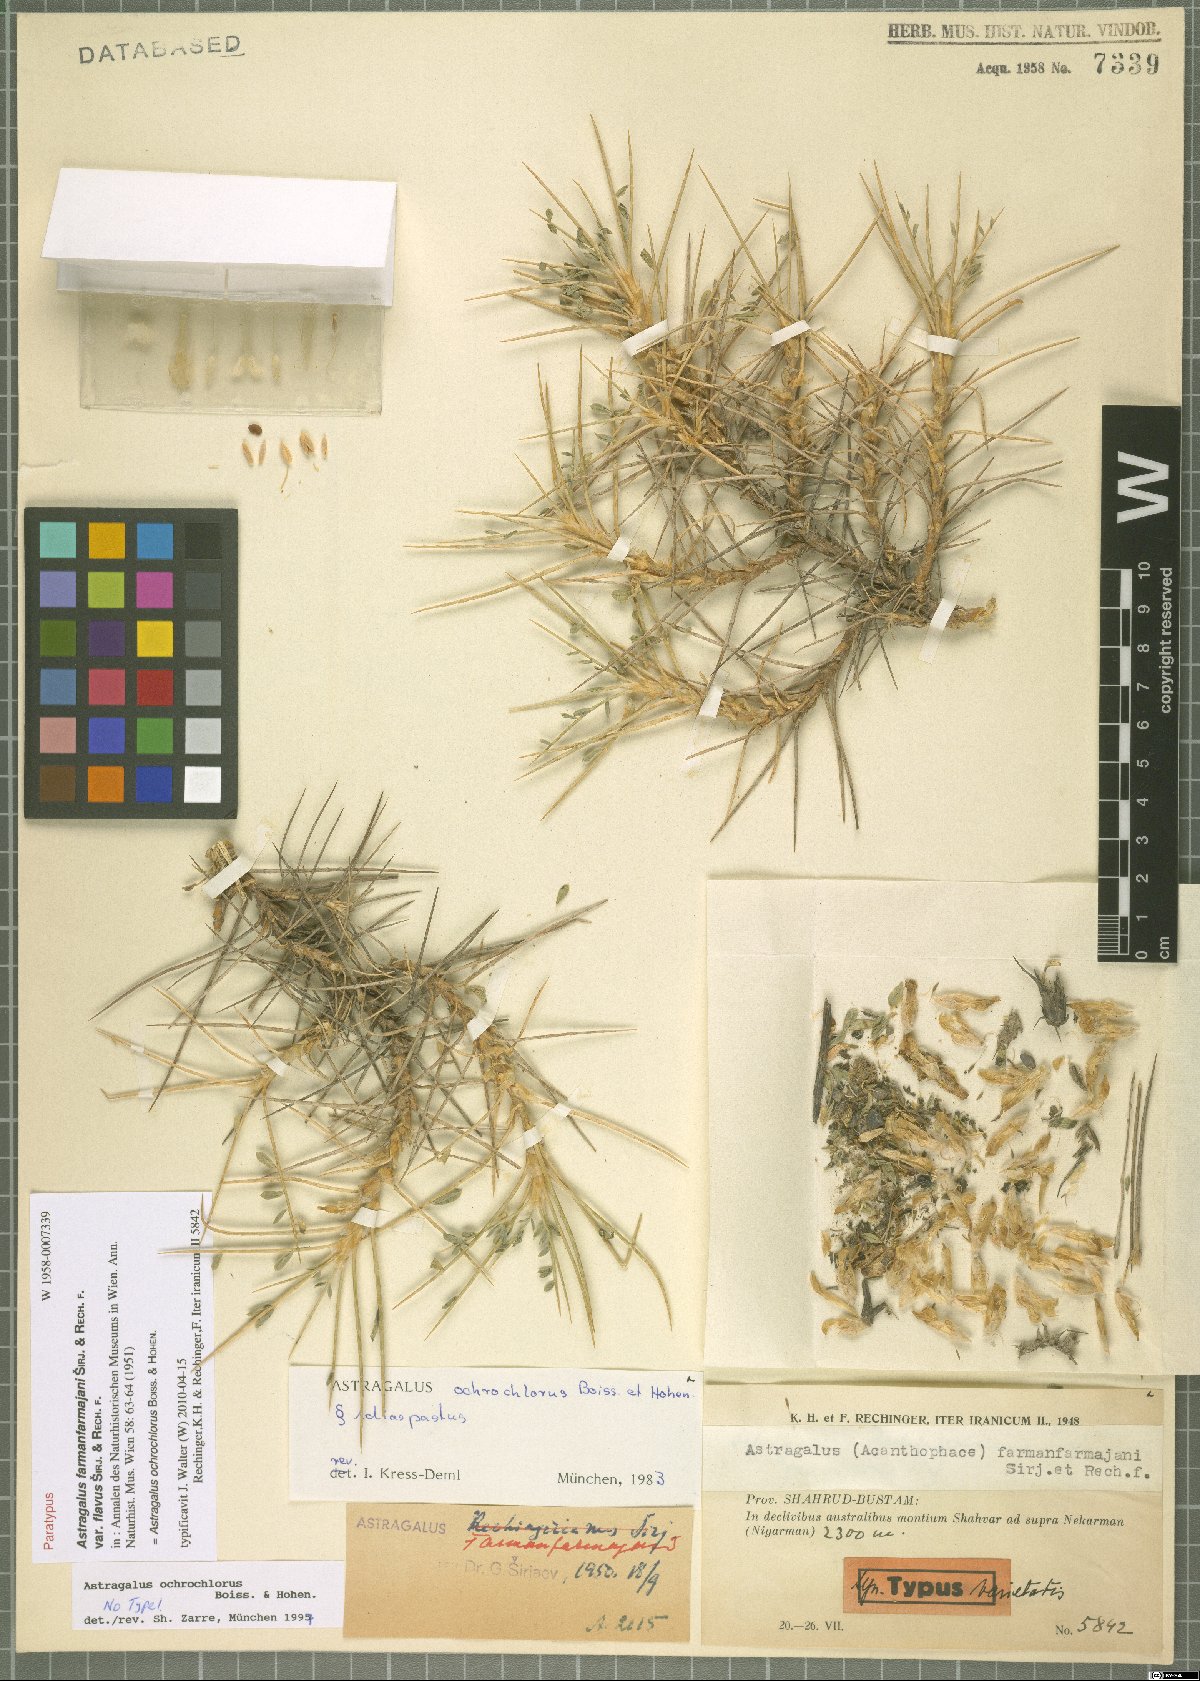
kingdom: Plantae
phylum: Tracheophyta
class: Magnoliopsida
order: Fabales
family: Fabaceae
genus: Astragalus
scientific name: Astragalus ochrochlorus
